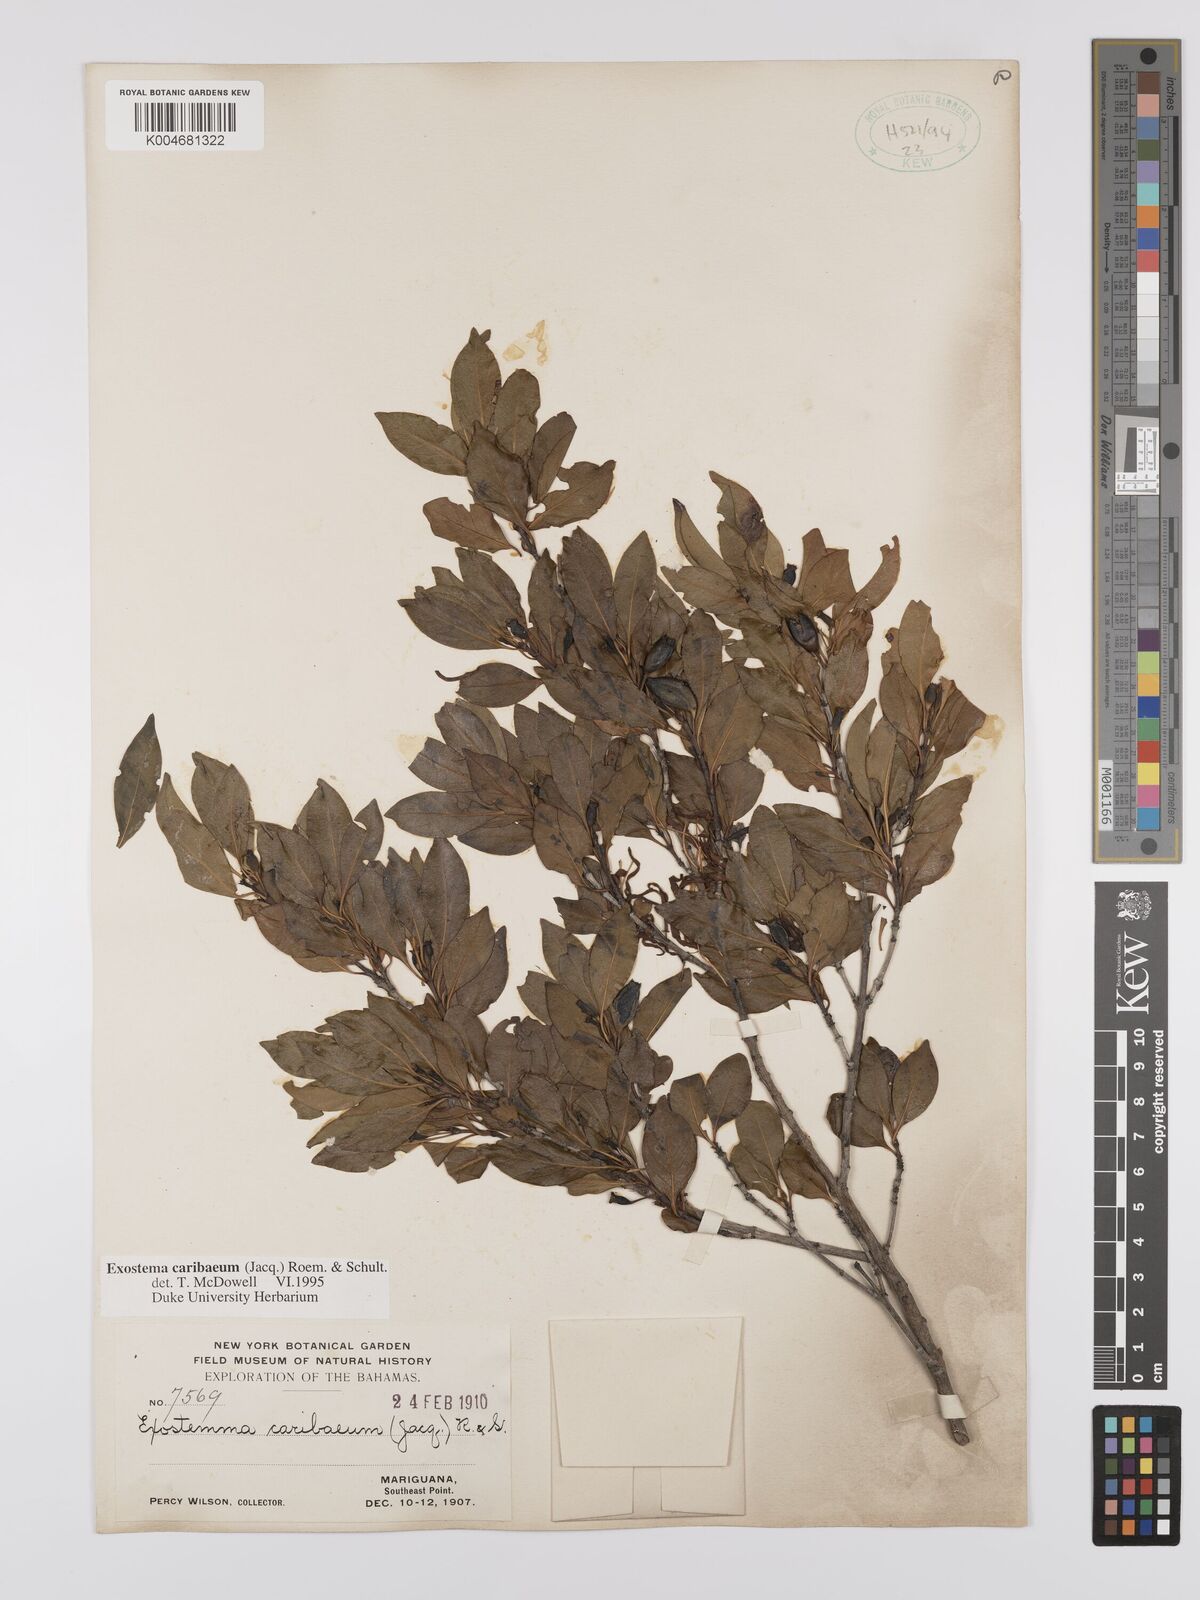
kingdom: Plantae
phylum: Tracheophyta
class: Magnoliopsida
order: Gentianales
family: Rubiaceae
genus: Exostema
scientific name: Exostema caribaeum
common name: Princewood
